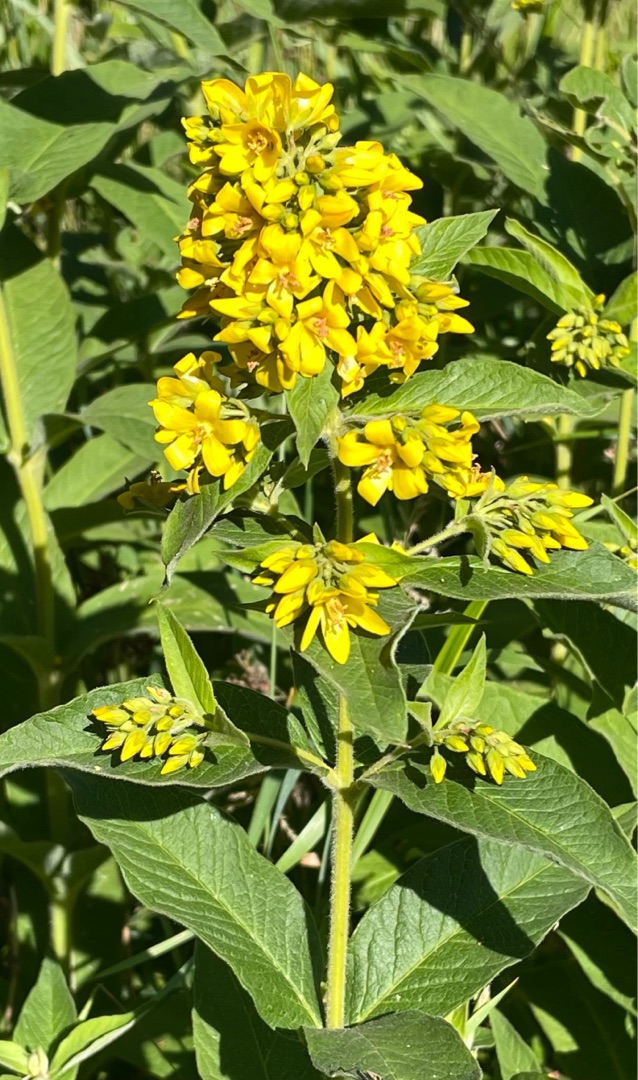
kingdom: Plantae
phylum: Tracheophyta
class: Magnoliopsida
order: Ericales
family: Primulaceae
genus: Lysimachia
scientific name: Lysimachia vulgaris
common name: Almindelig fredløs
